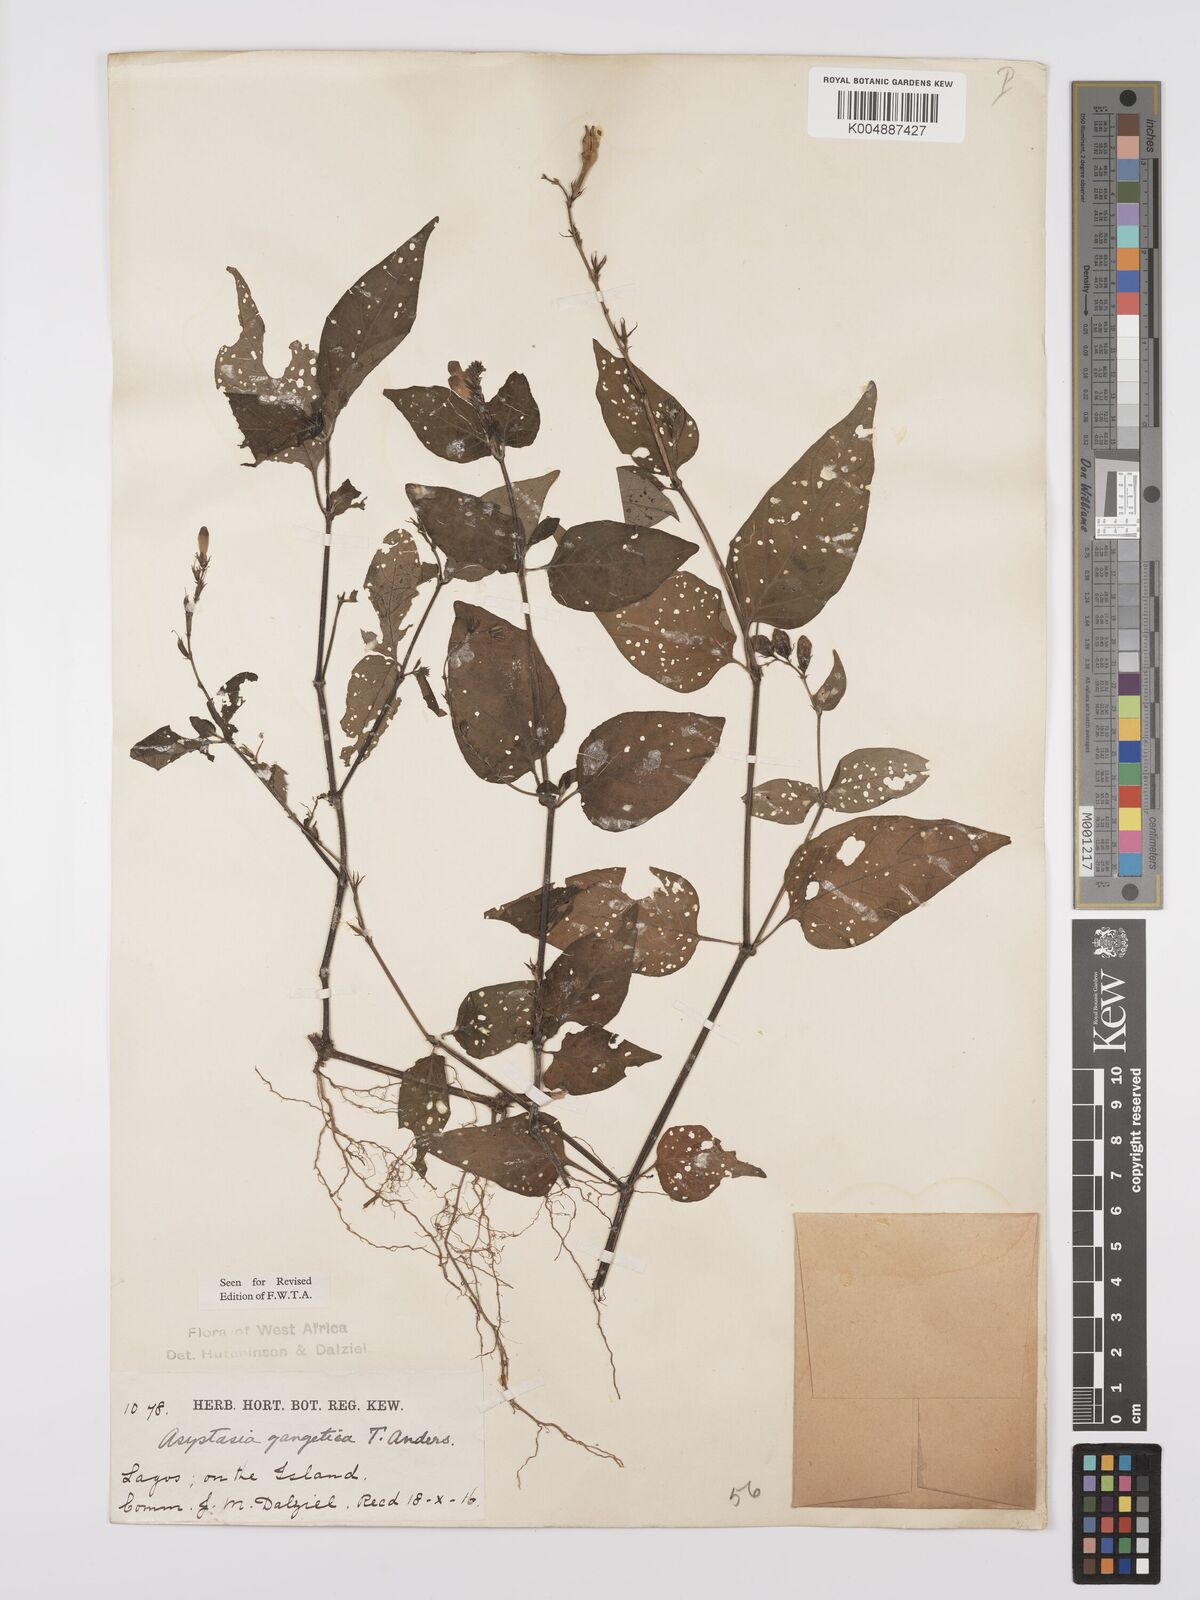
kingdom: Plantae
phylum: Tracheophyta
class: Magnoliopsida
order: Lamiales
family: Acanthaceae
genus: Asystasia
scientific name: Asystasia gangetica
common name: Chinese violet
